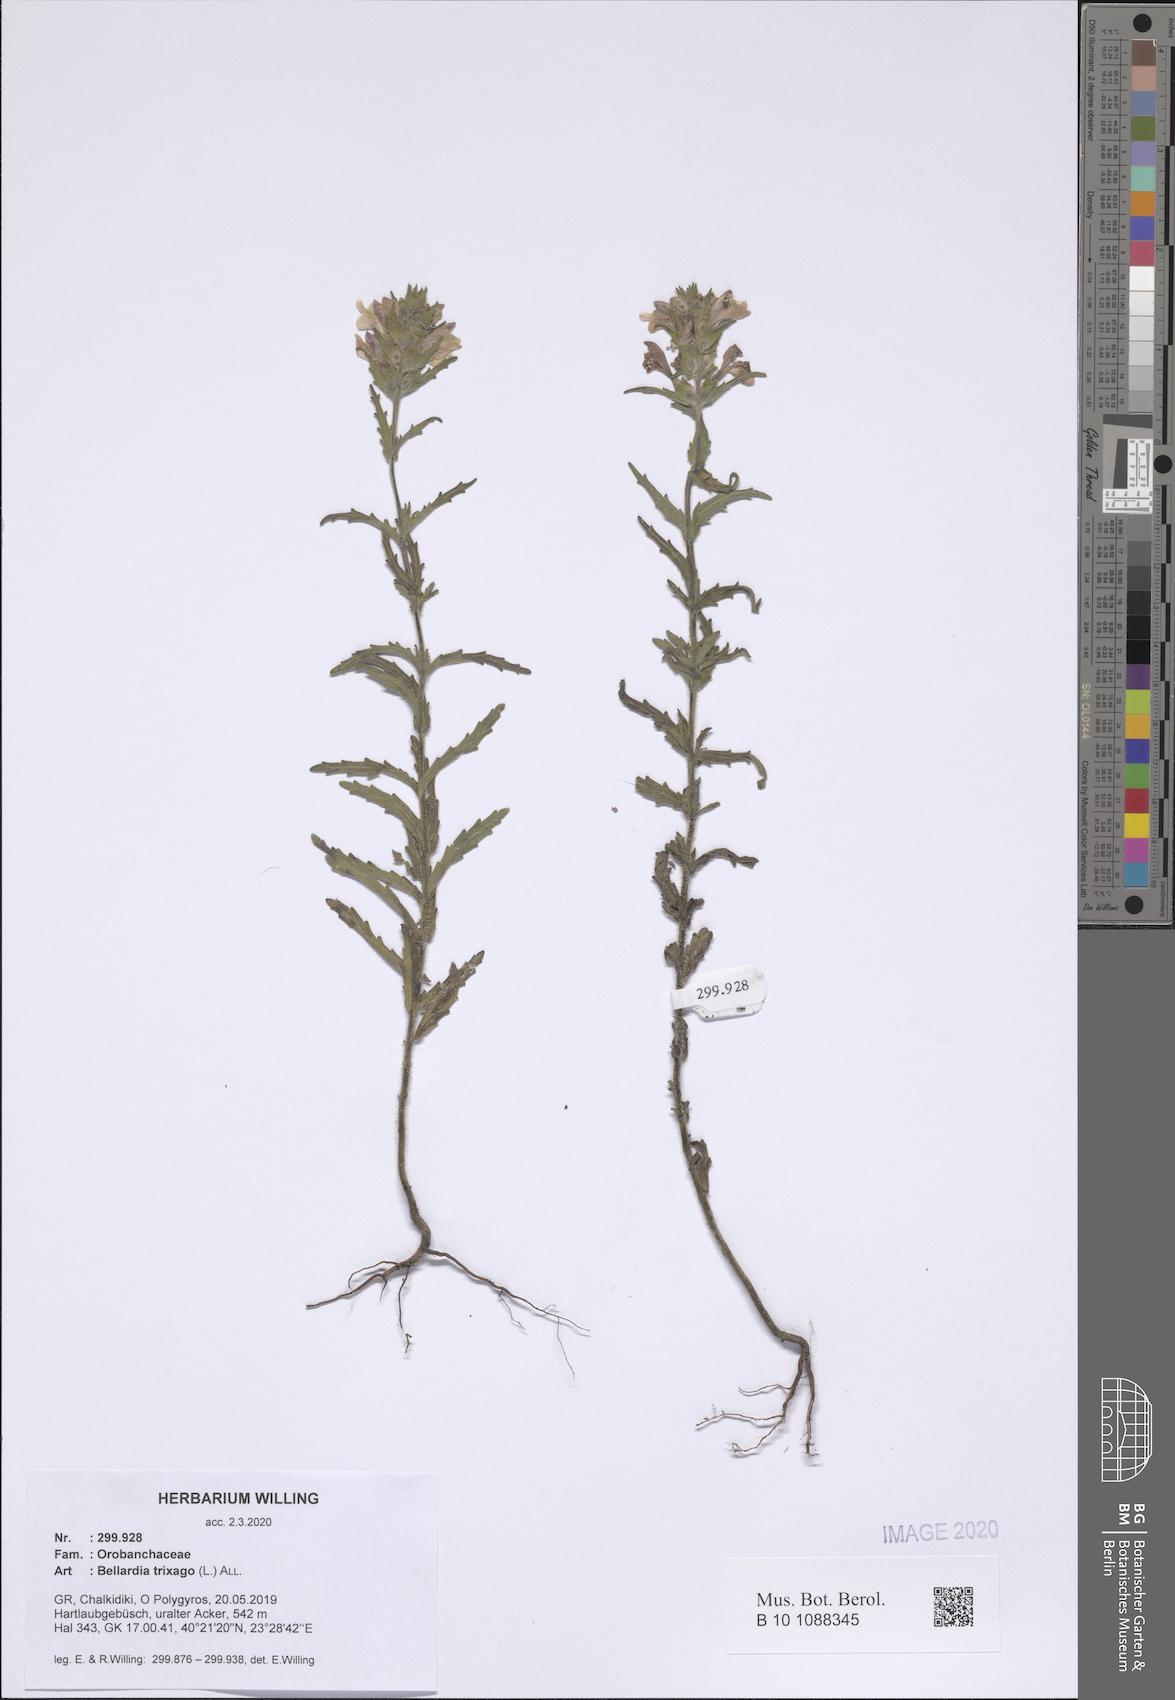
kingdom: Plantae
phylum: Tracheophyta
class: Magnoliopsida
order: Lamiales
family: Orobanchaceae
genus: Bellardia
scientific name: Bellardia trixago
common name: Mediterranean lineseed
